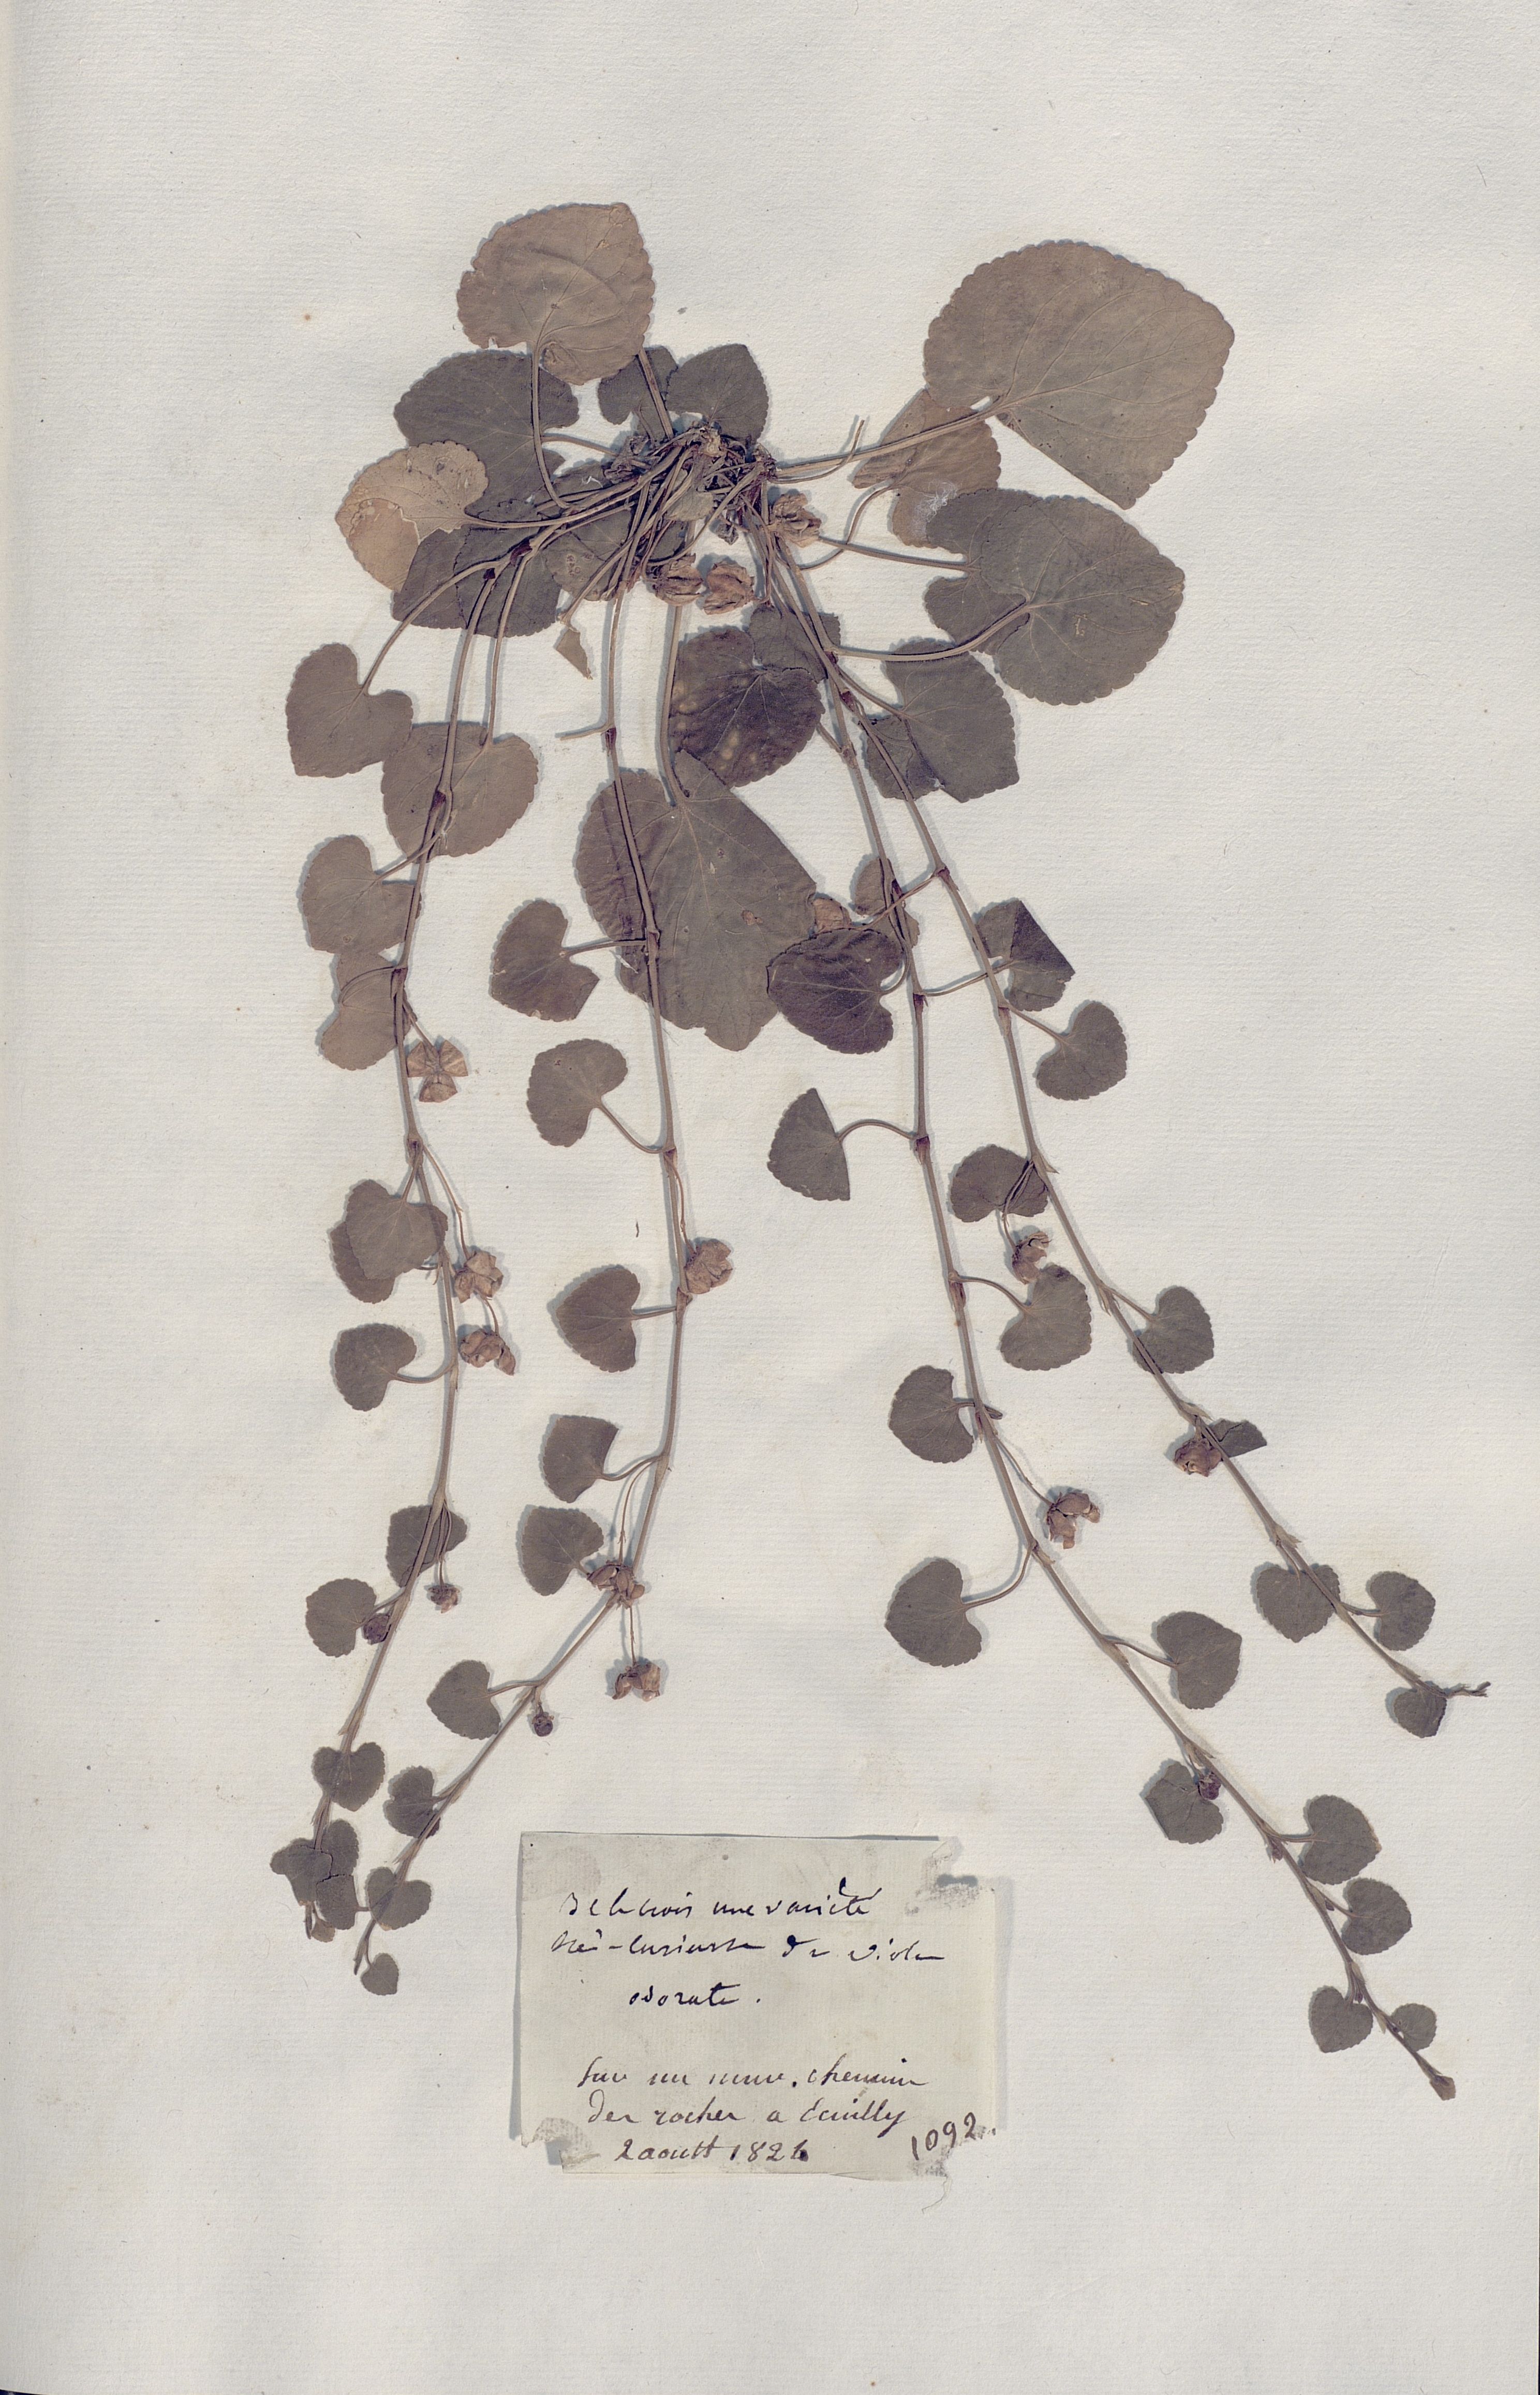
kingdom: Plantae
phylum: Tracheophyta
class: Magnoliopsida
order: Malpighiales
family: Violaceae
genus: Viola
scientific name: Viola odorata
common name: Sweet violet
